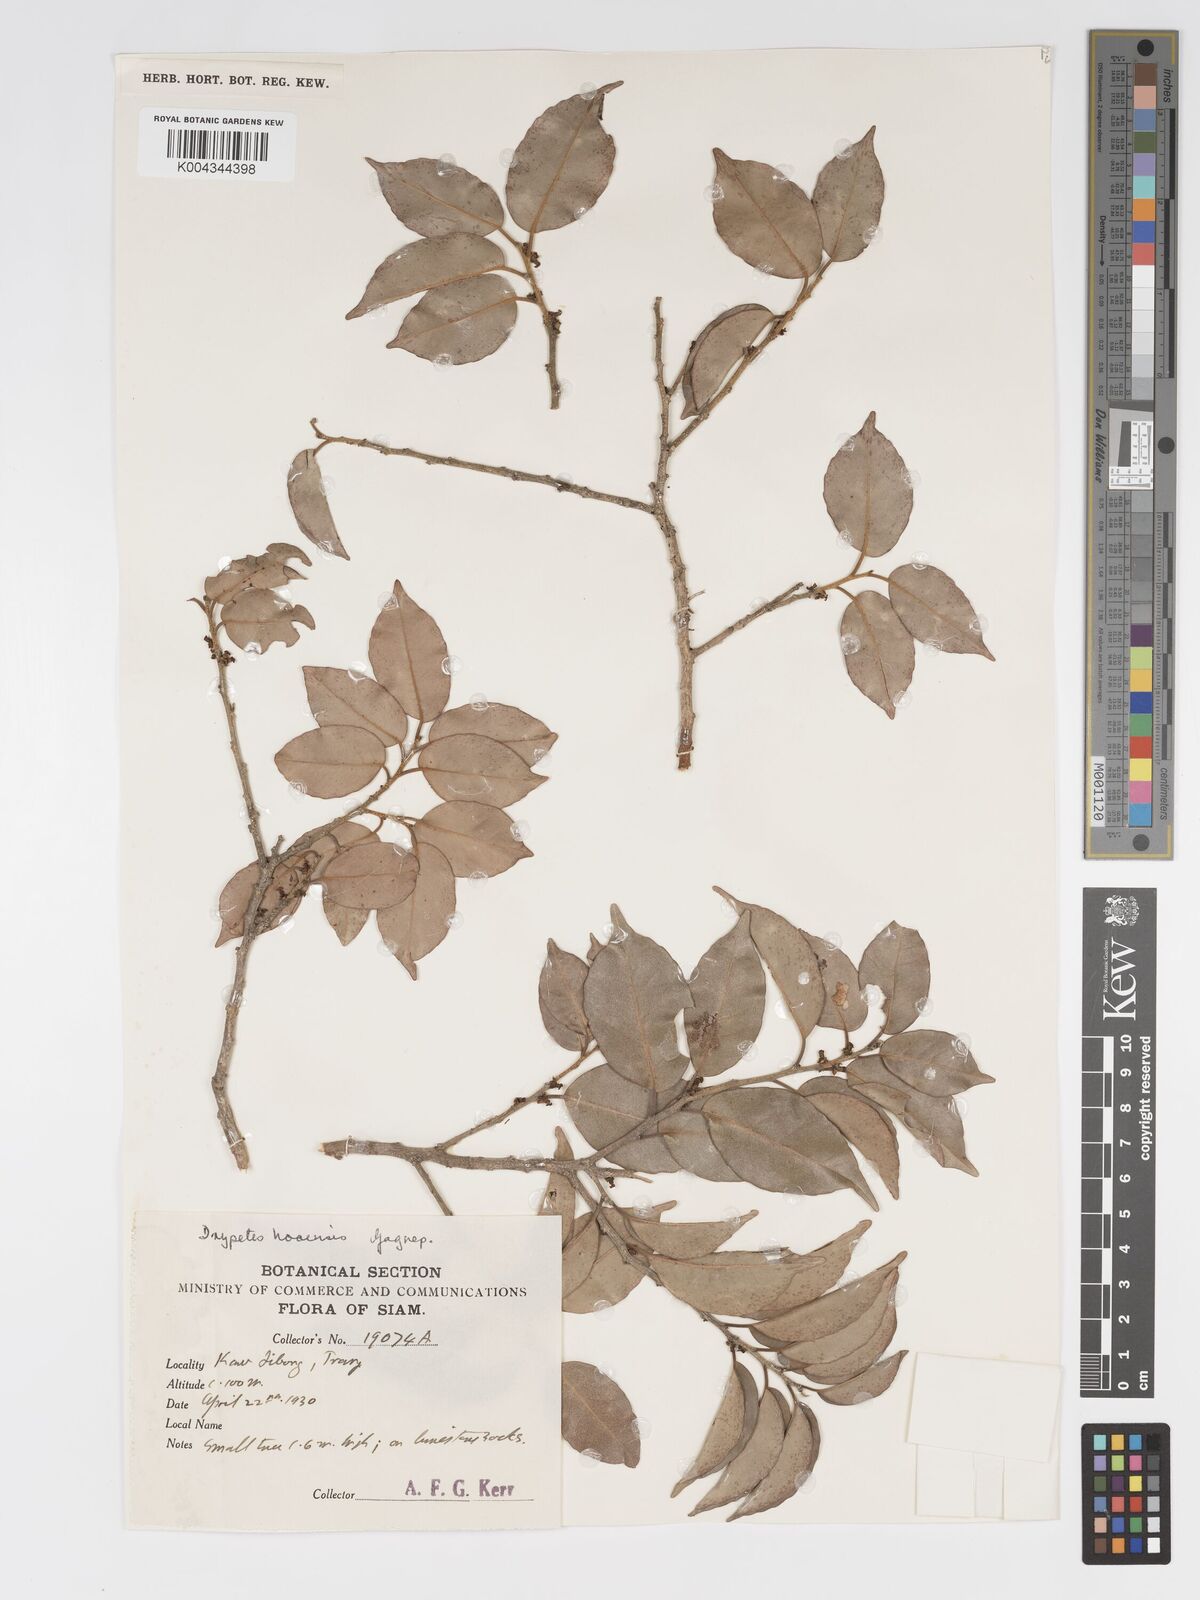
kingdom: Plantae
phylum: Tracheophyta
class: Magnoliopsida
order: Malpighiales
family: Putranjivaceae
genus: Drypetes
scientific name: Drypetes hoaensis
